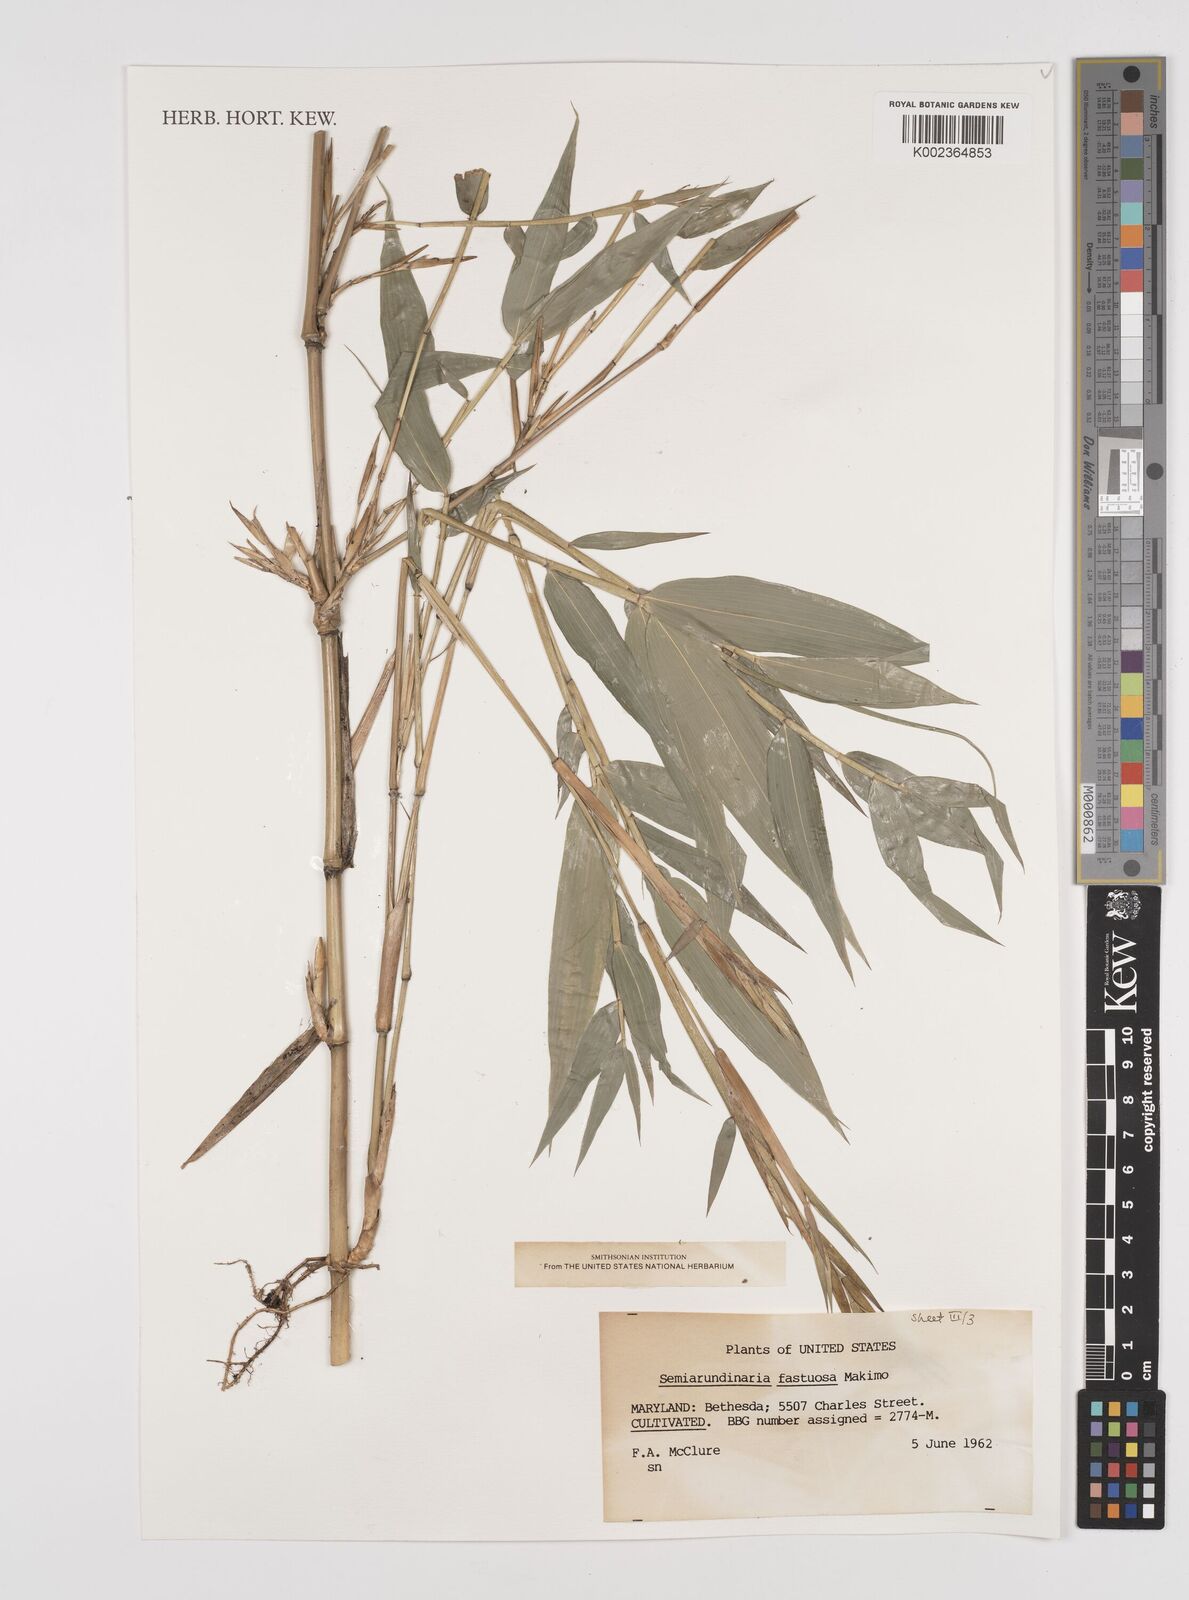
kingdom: Plantae
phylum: Tracheophyta
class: Liliopsida
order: Poales
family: Poaceae
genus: Semiarundinaria
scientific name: Semiarundinaria fastuosa
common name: Narihira bamboo
